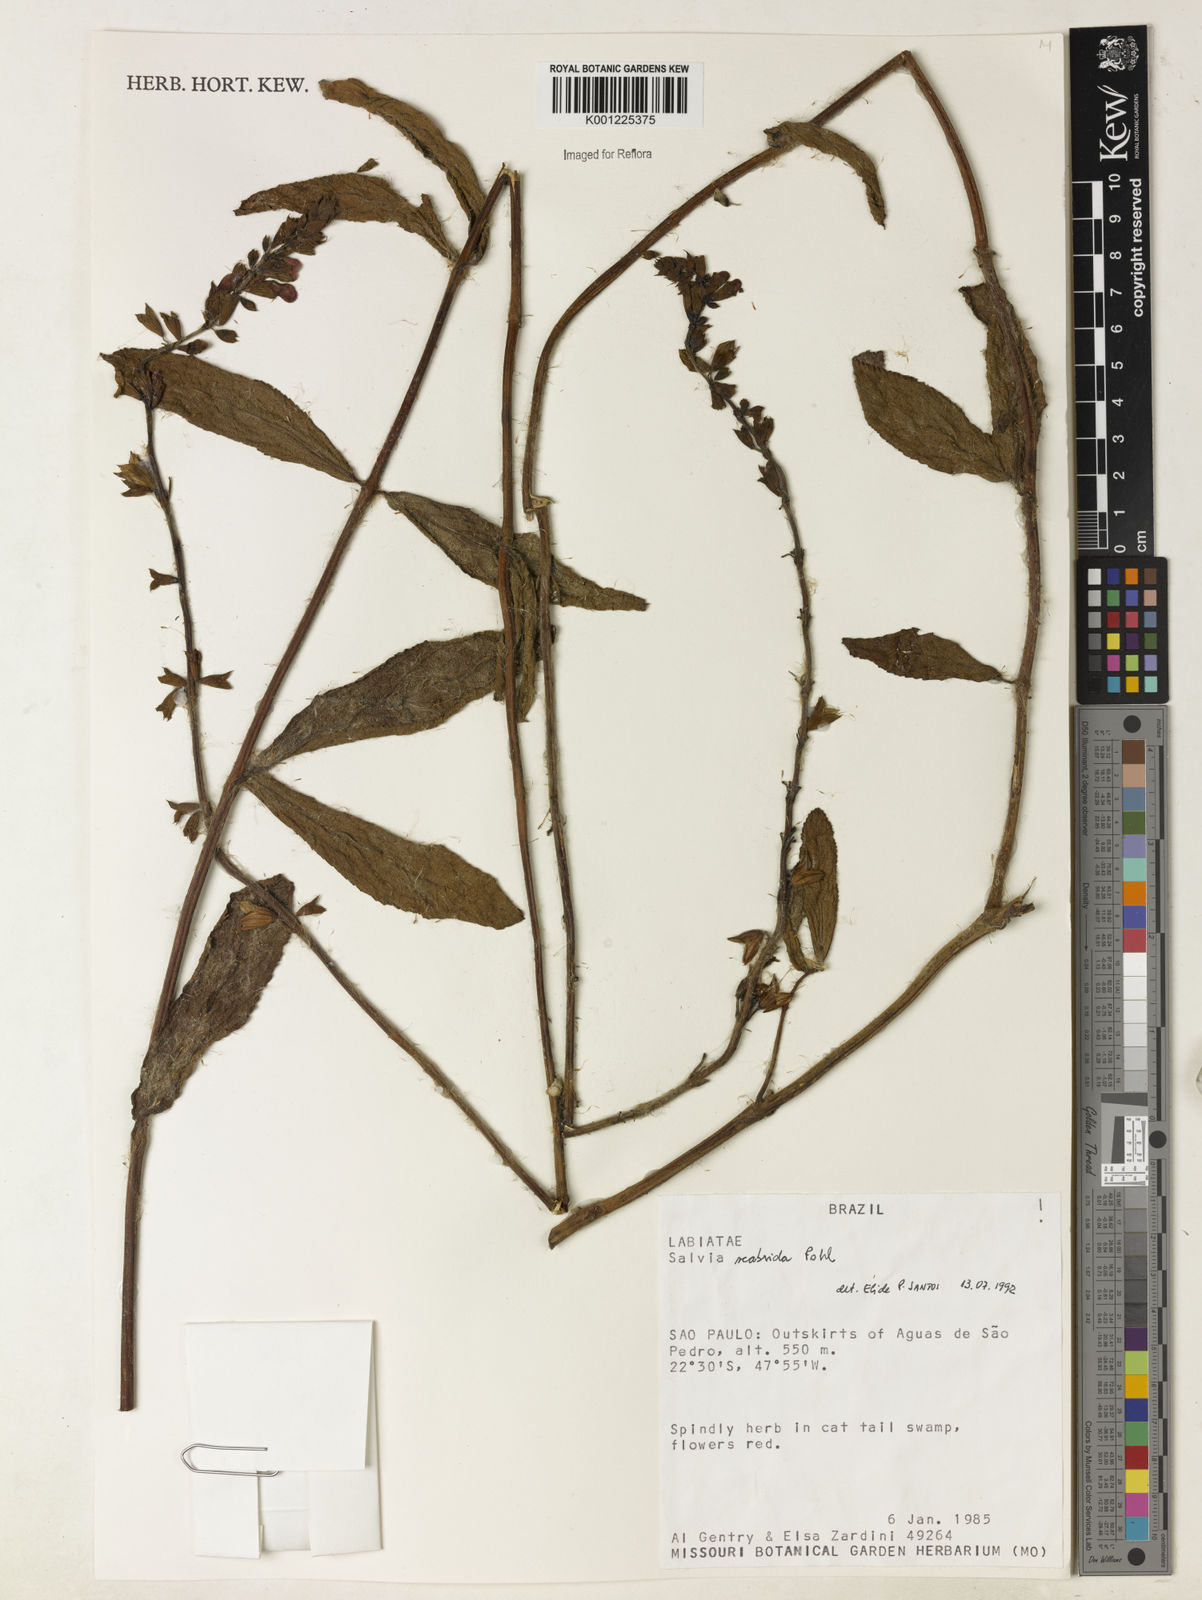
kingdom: Plantae
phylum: Tracheophyta
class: Magnoliopsida
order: Lamiales
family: Lamiaceae
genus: Salvia
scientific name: Salvia scabrida
